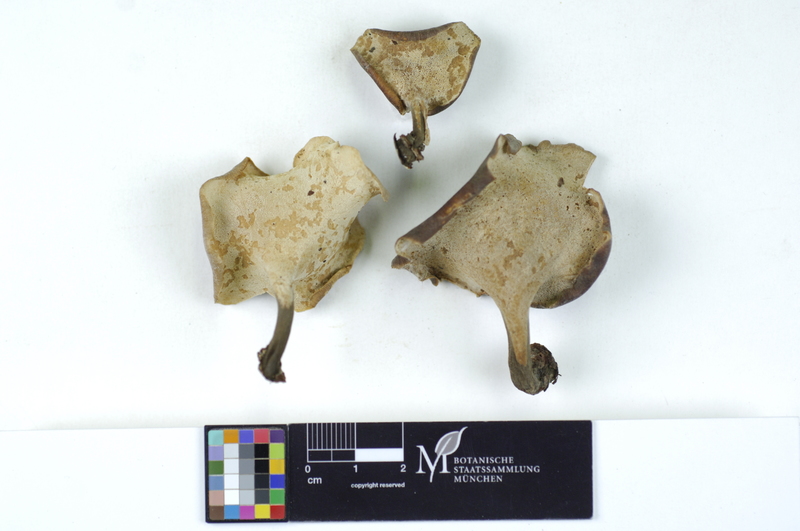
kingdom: Plantae
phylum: Tracheophyta
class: Magnoliopsida
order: Rosales
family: Rosaceae
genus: Prunus
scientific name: Prunus padus
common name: Bird cherry
